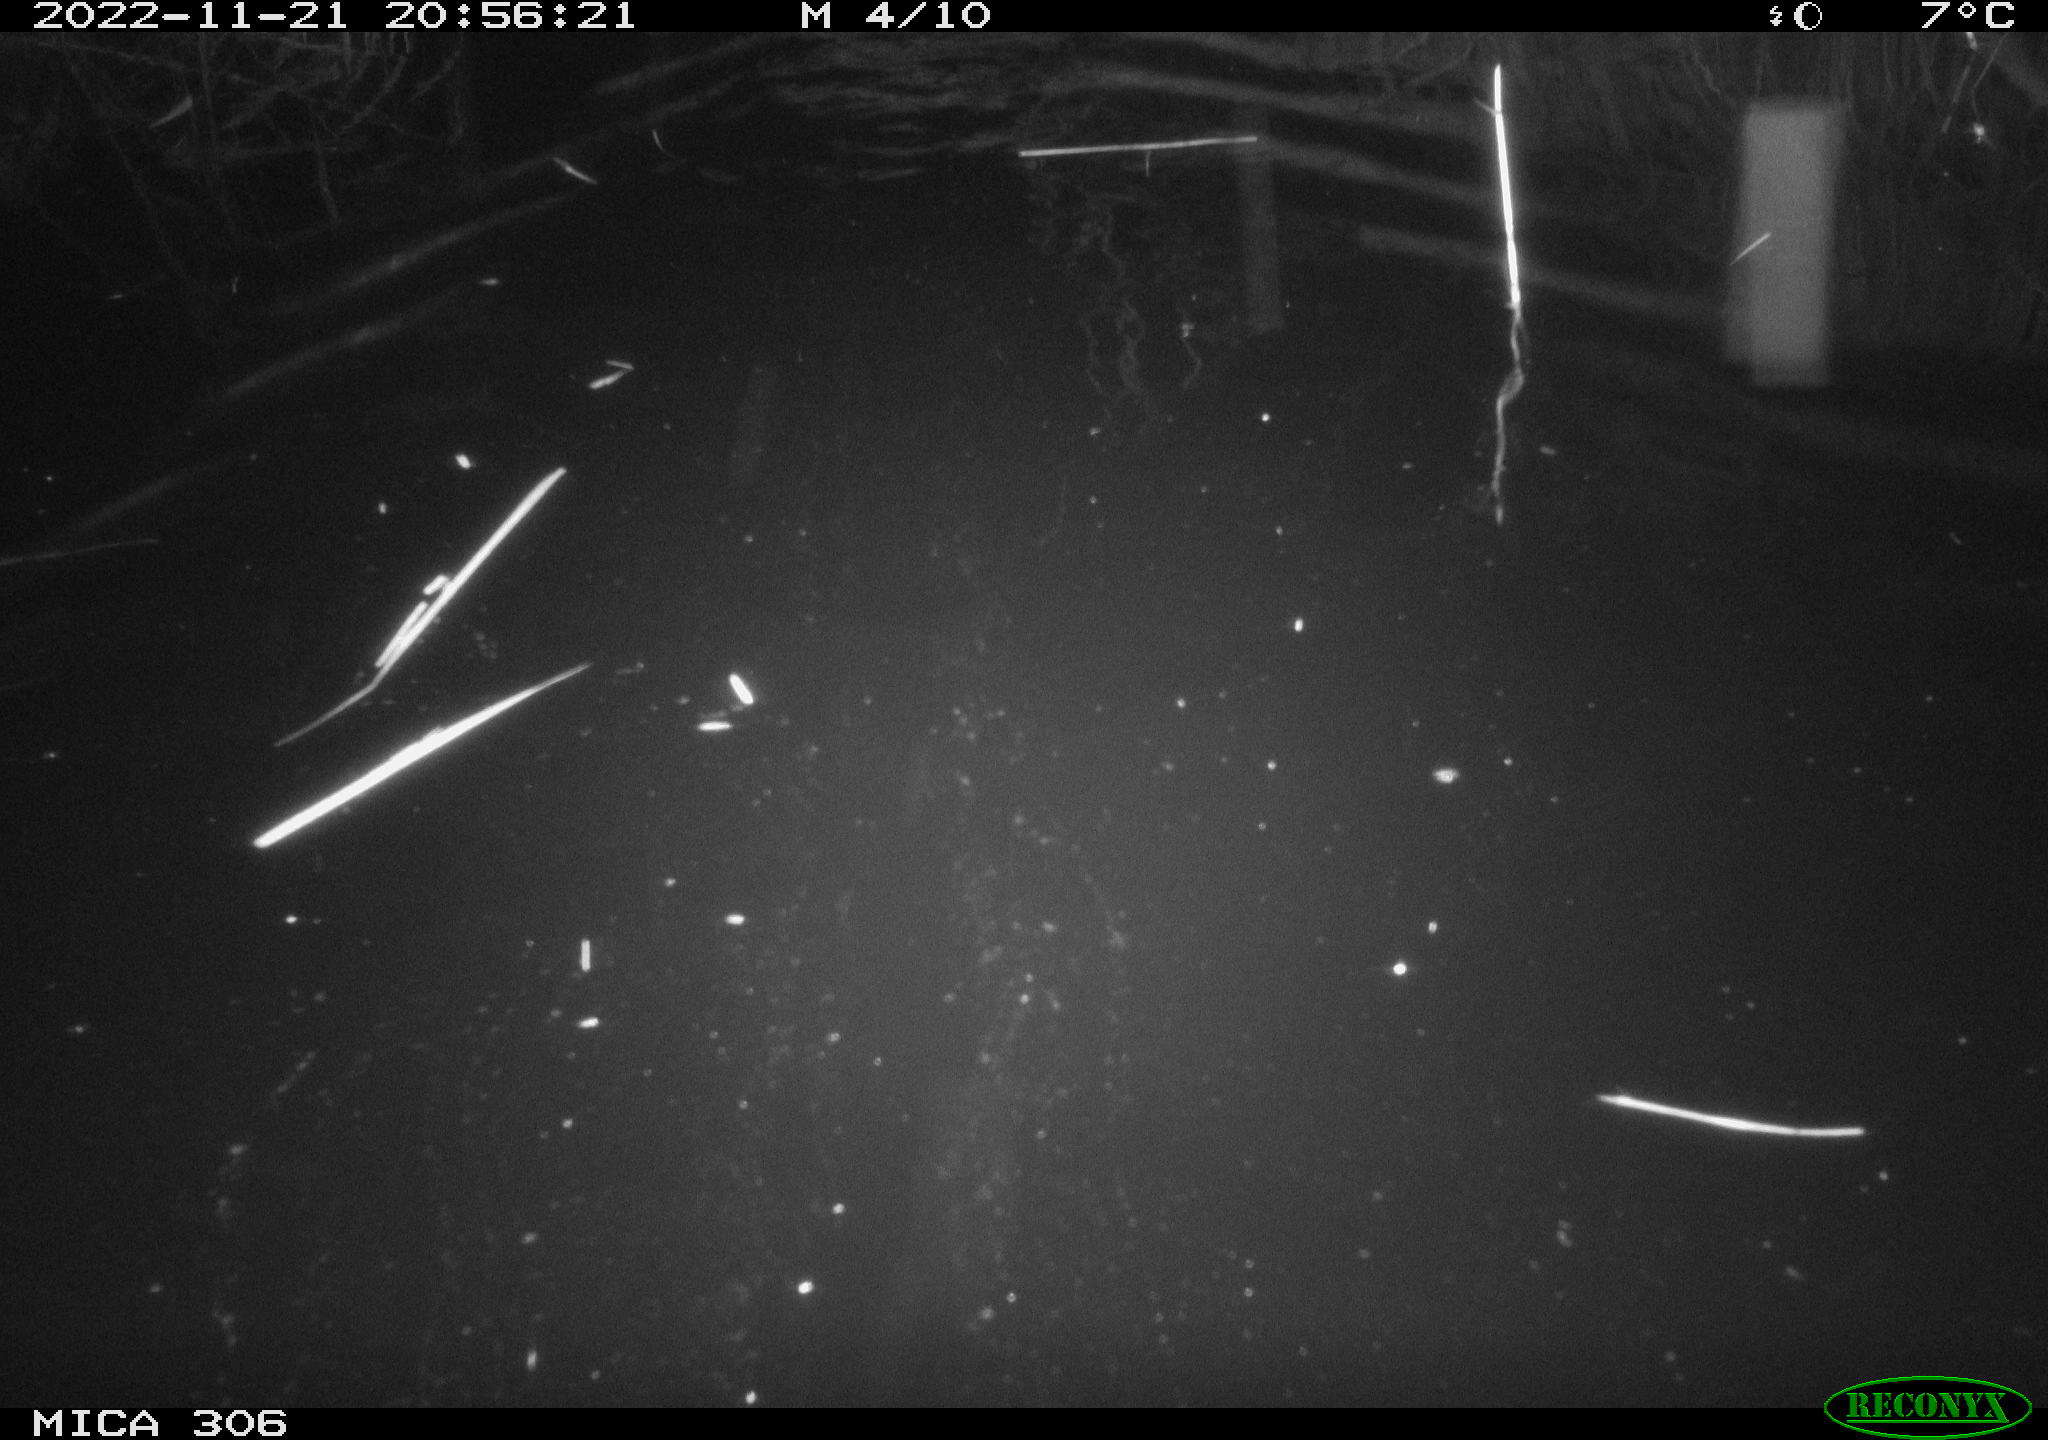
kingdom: Animalia
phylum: Chordata
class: Mammalia
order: Rodentia
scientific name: Rodentia
